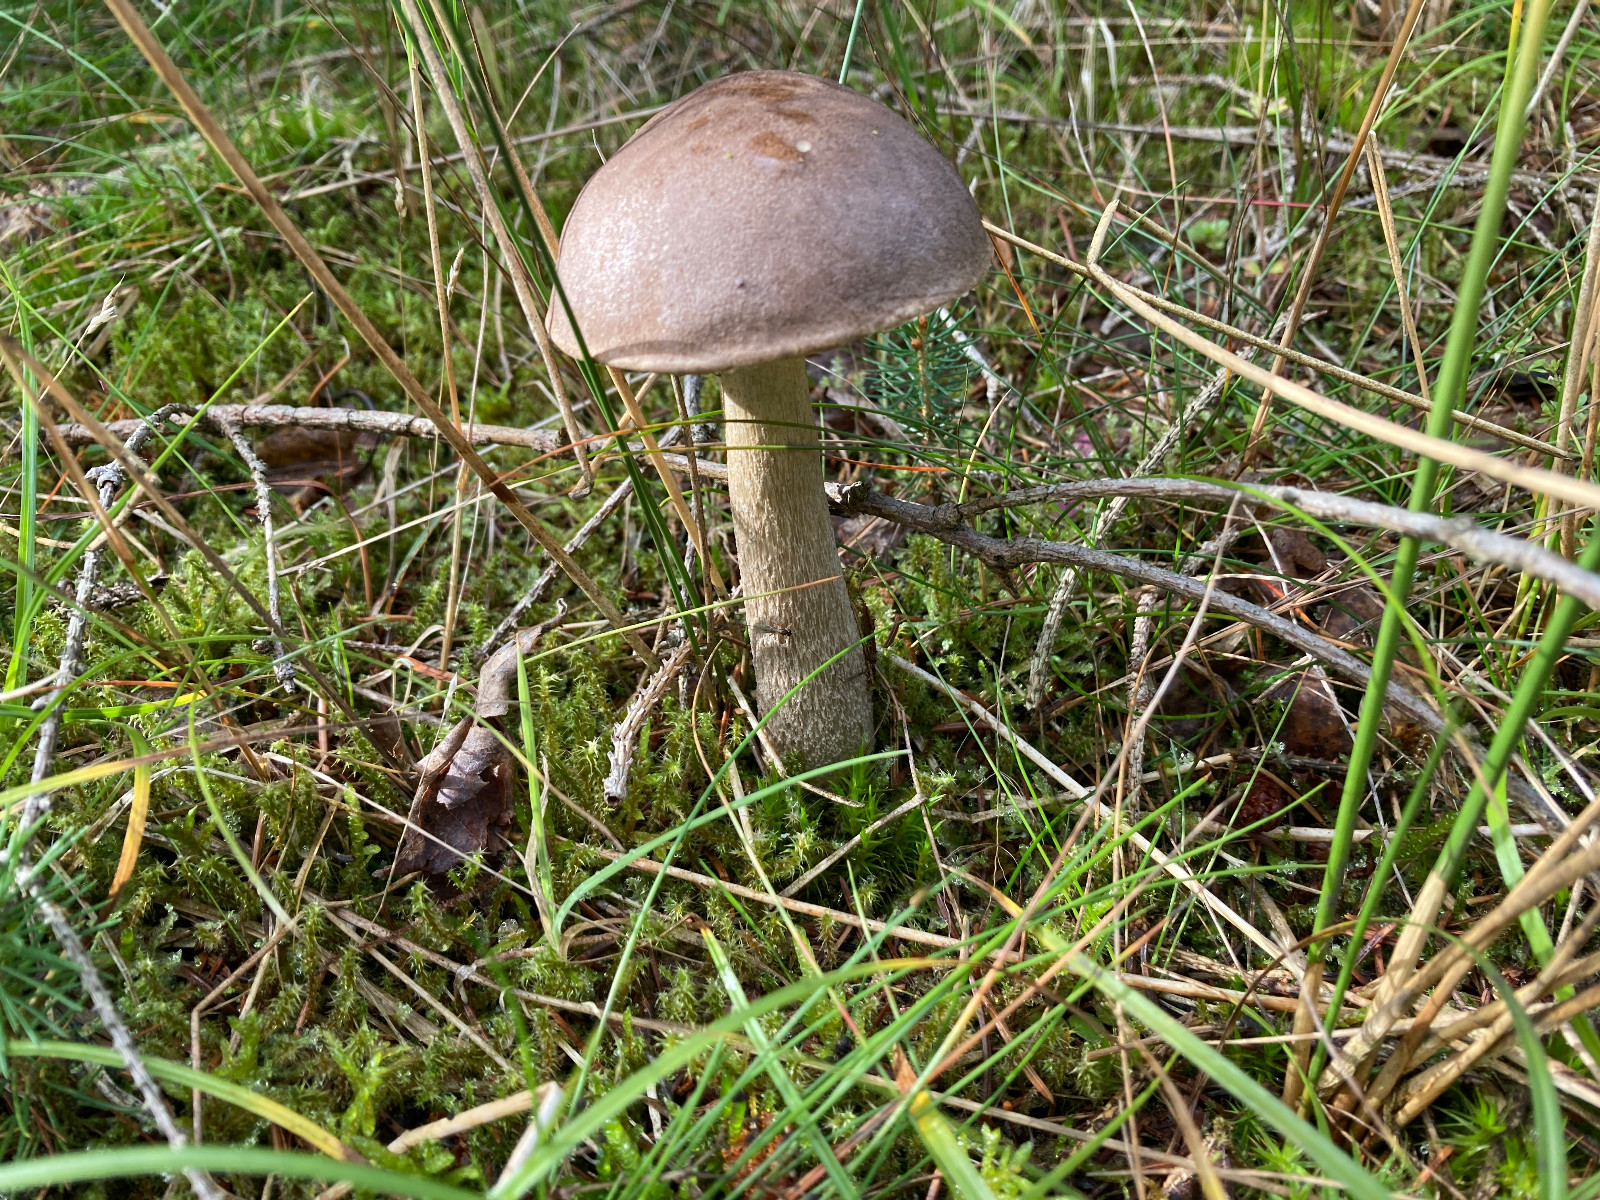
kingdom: Fungi
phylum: Basidiomycota
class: Agaricomycetes
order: Boletales
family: Boletaceae
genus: Leccinum
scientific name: Leccinum scabrum
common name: brun skælrørhat
